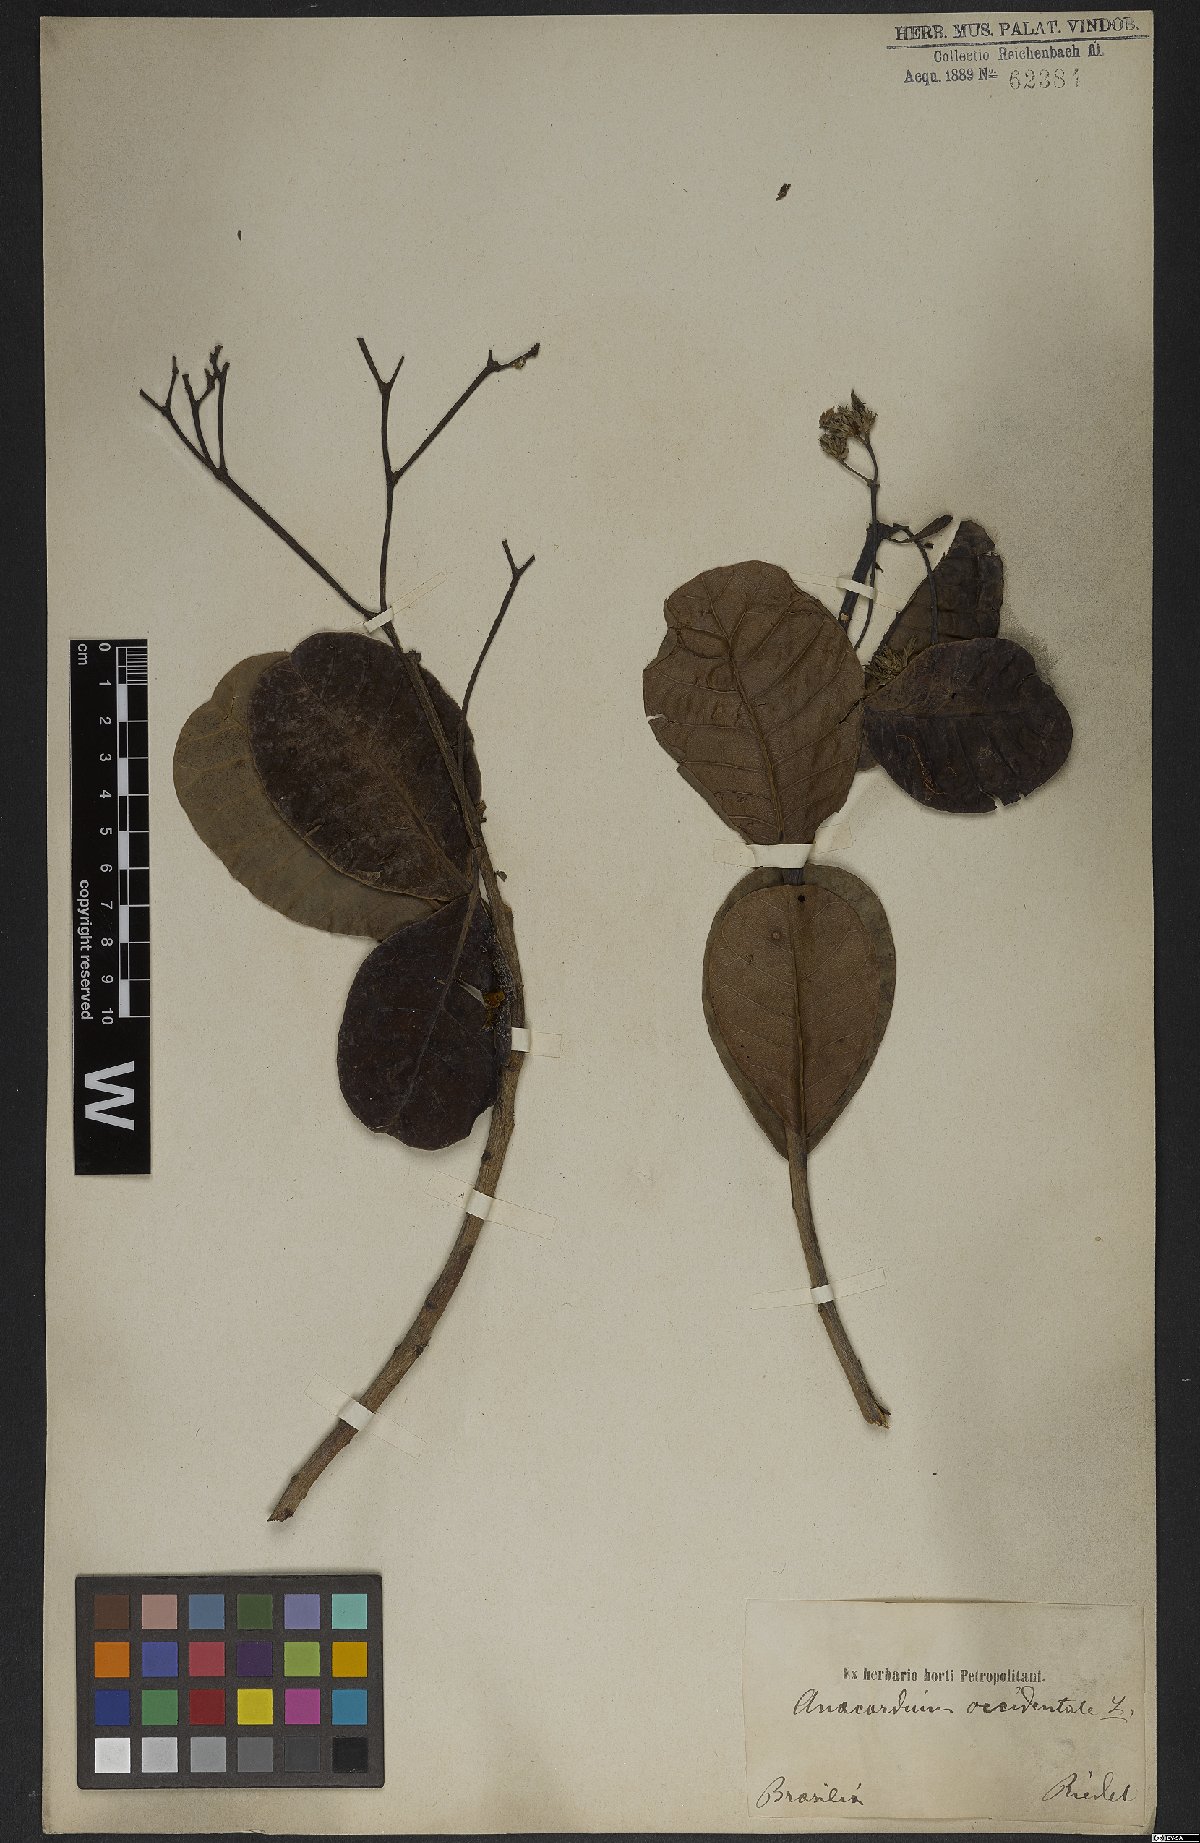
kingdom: Plantae
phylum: Tracheophyta
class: Magnoliopsida
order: Sapindales
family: Anacardiaceae
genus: Anacardium
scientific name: Anacardium occidentale
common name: Cashew
